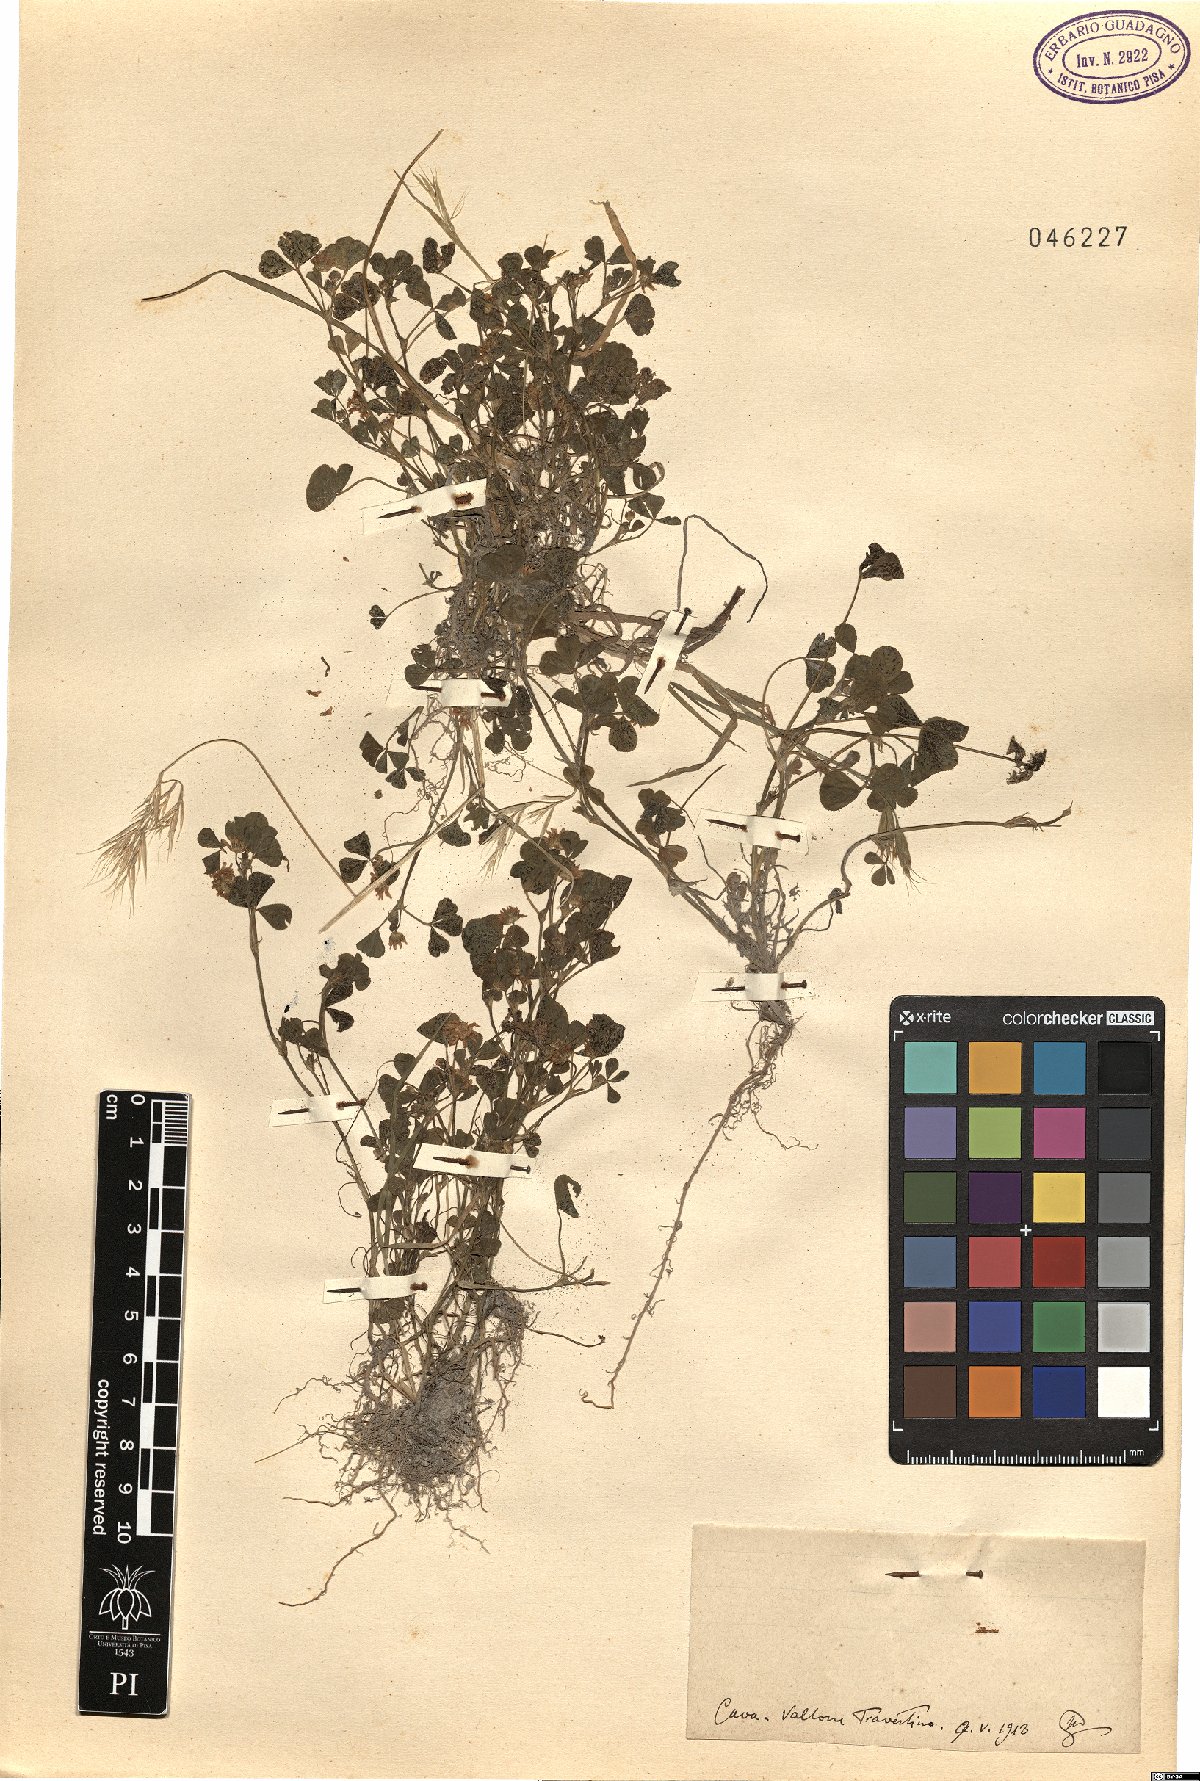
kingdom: Plantae
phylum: Tracheophyta
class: Magnoliopsida
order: Fabales
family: Fabaceae
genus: Trifolium
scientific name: Trifolium
